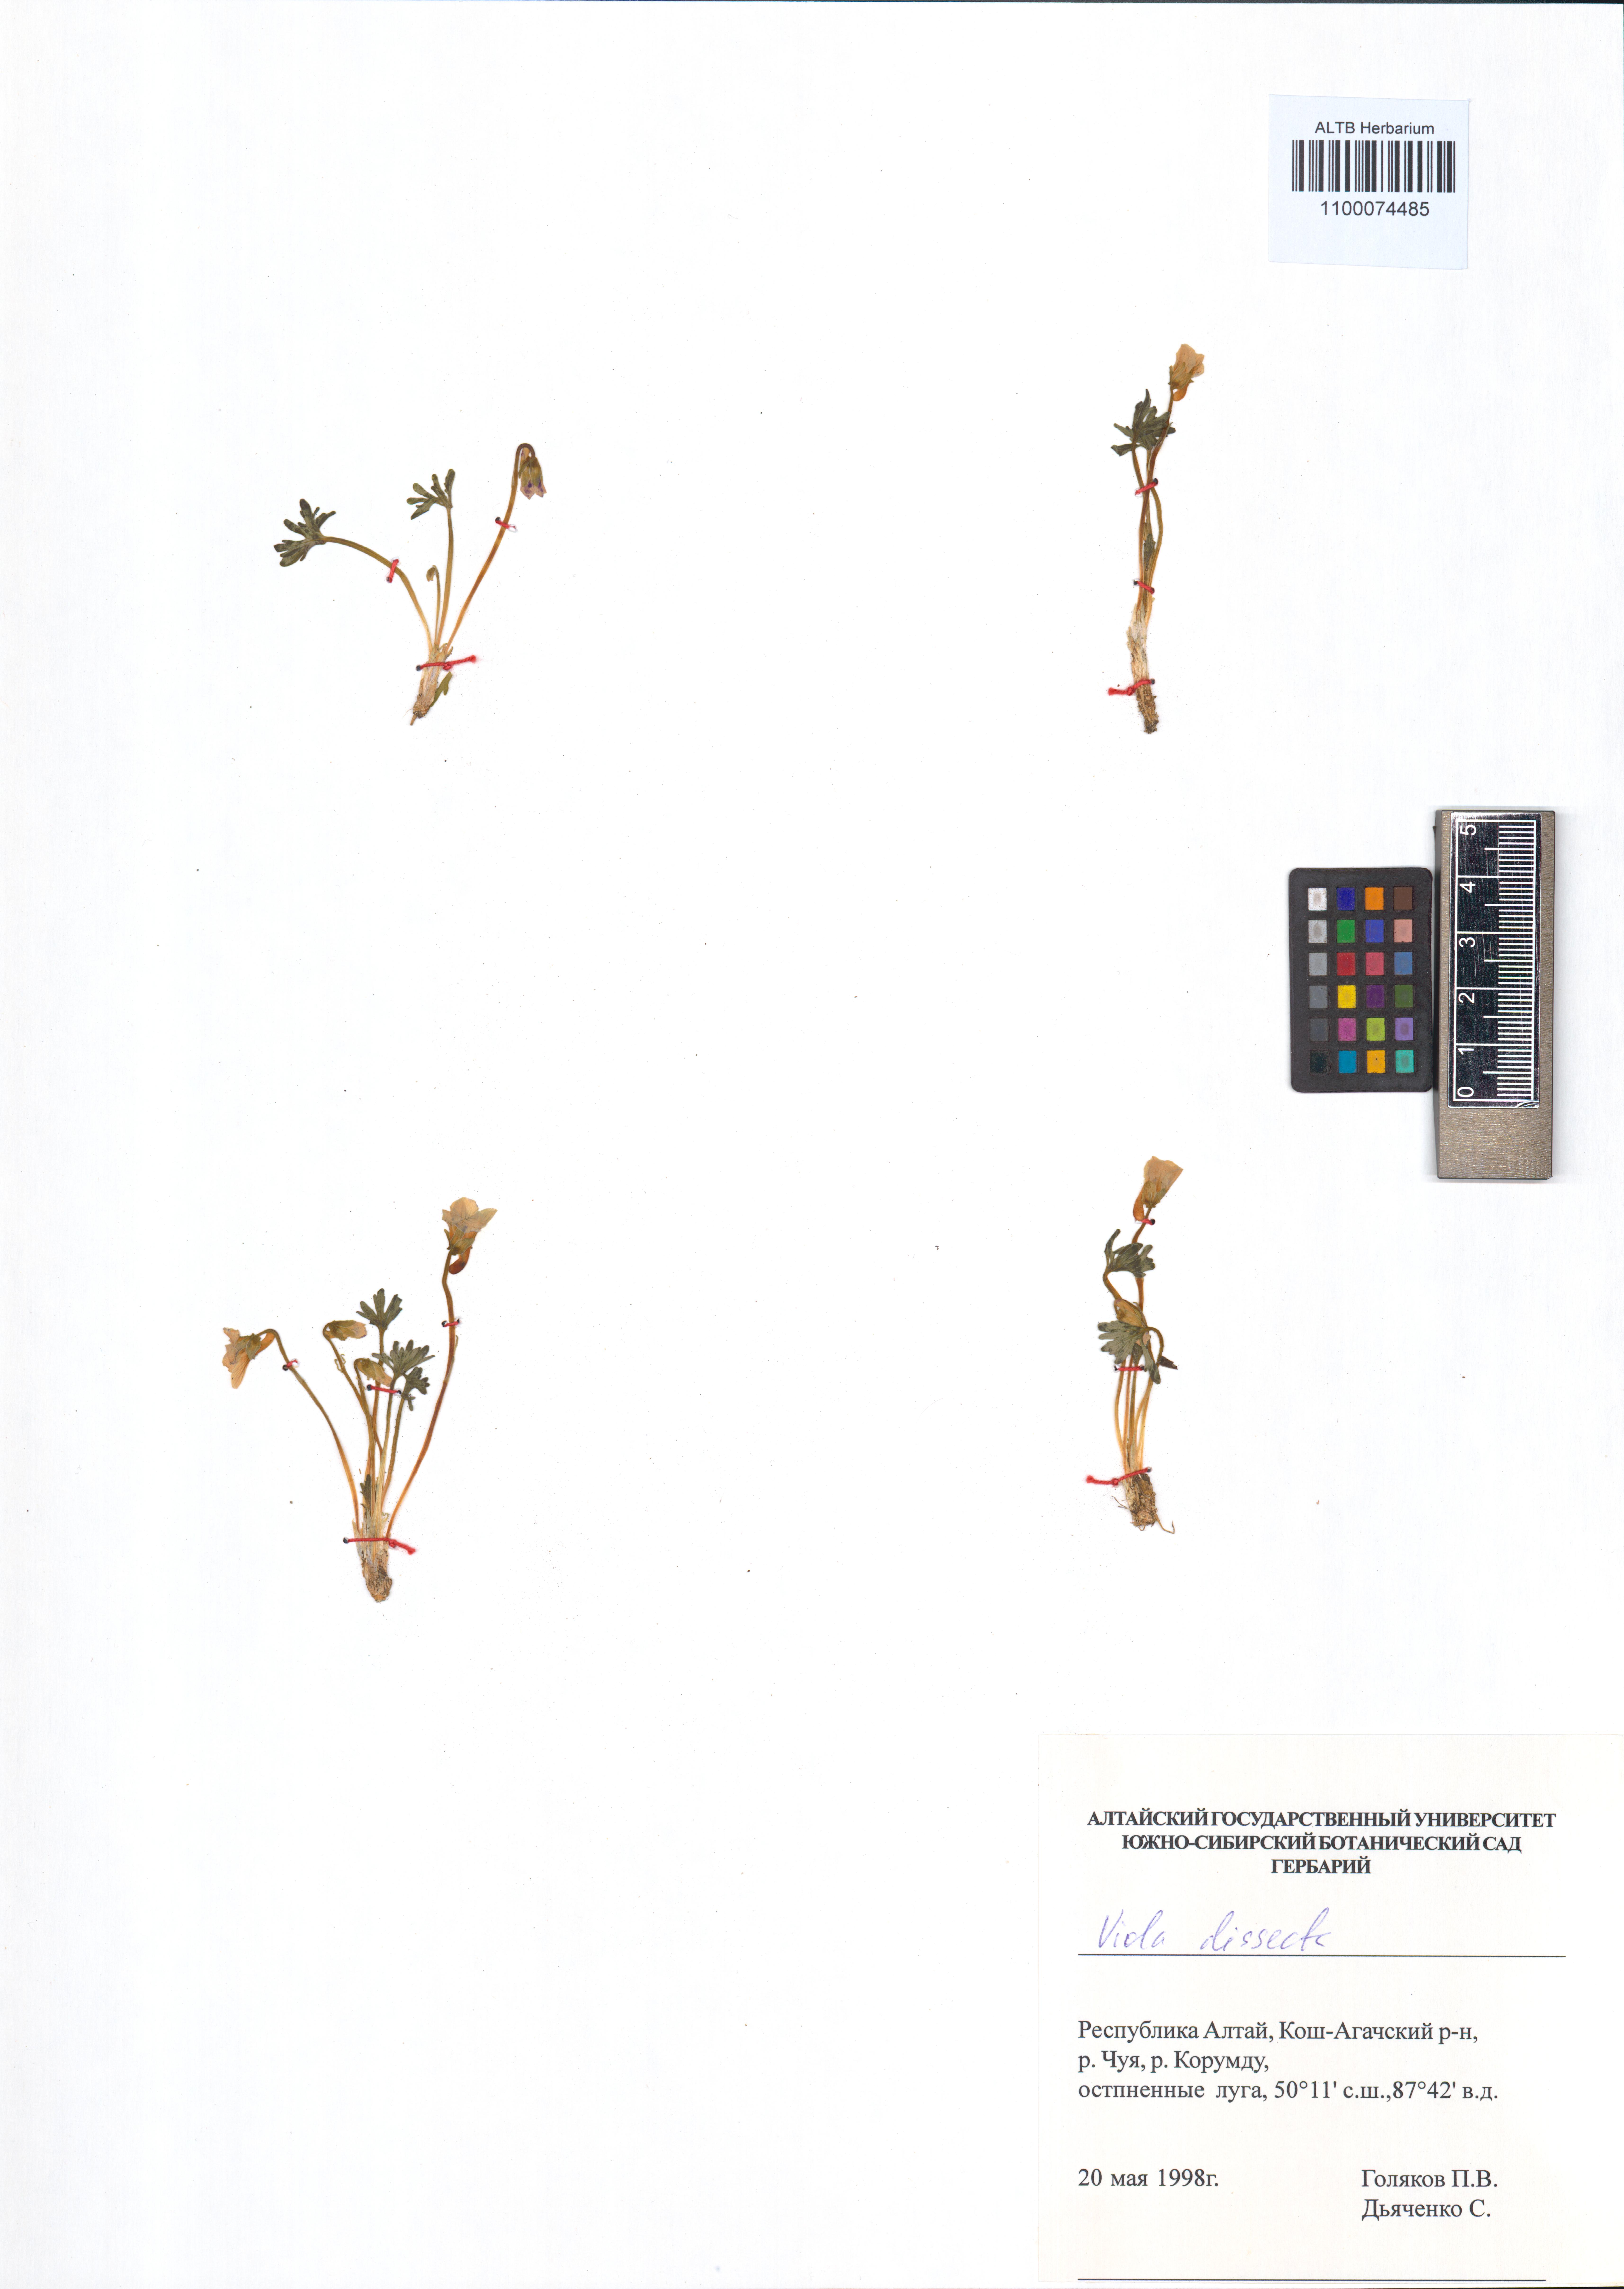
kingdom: Plantae
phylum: Tracheophyta
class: Magnoliopsida
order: Malpighiales
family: Violaceae
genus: Viola
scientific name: Viola multifida
